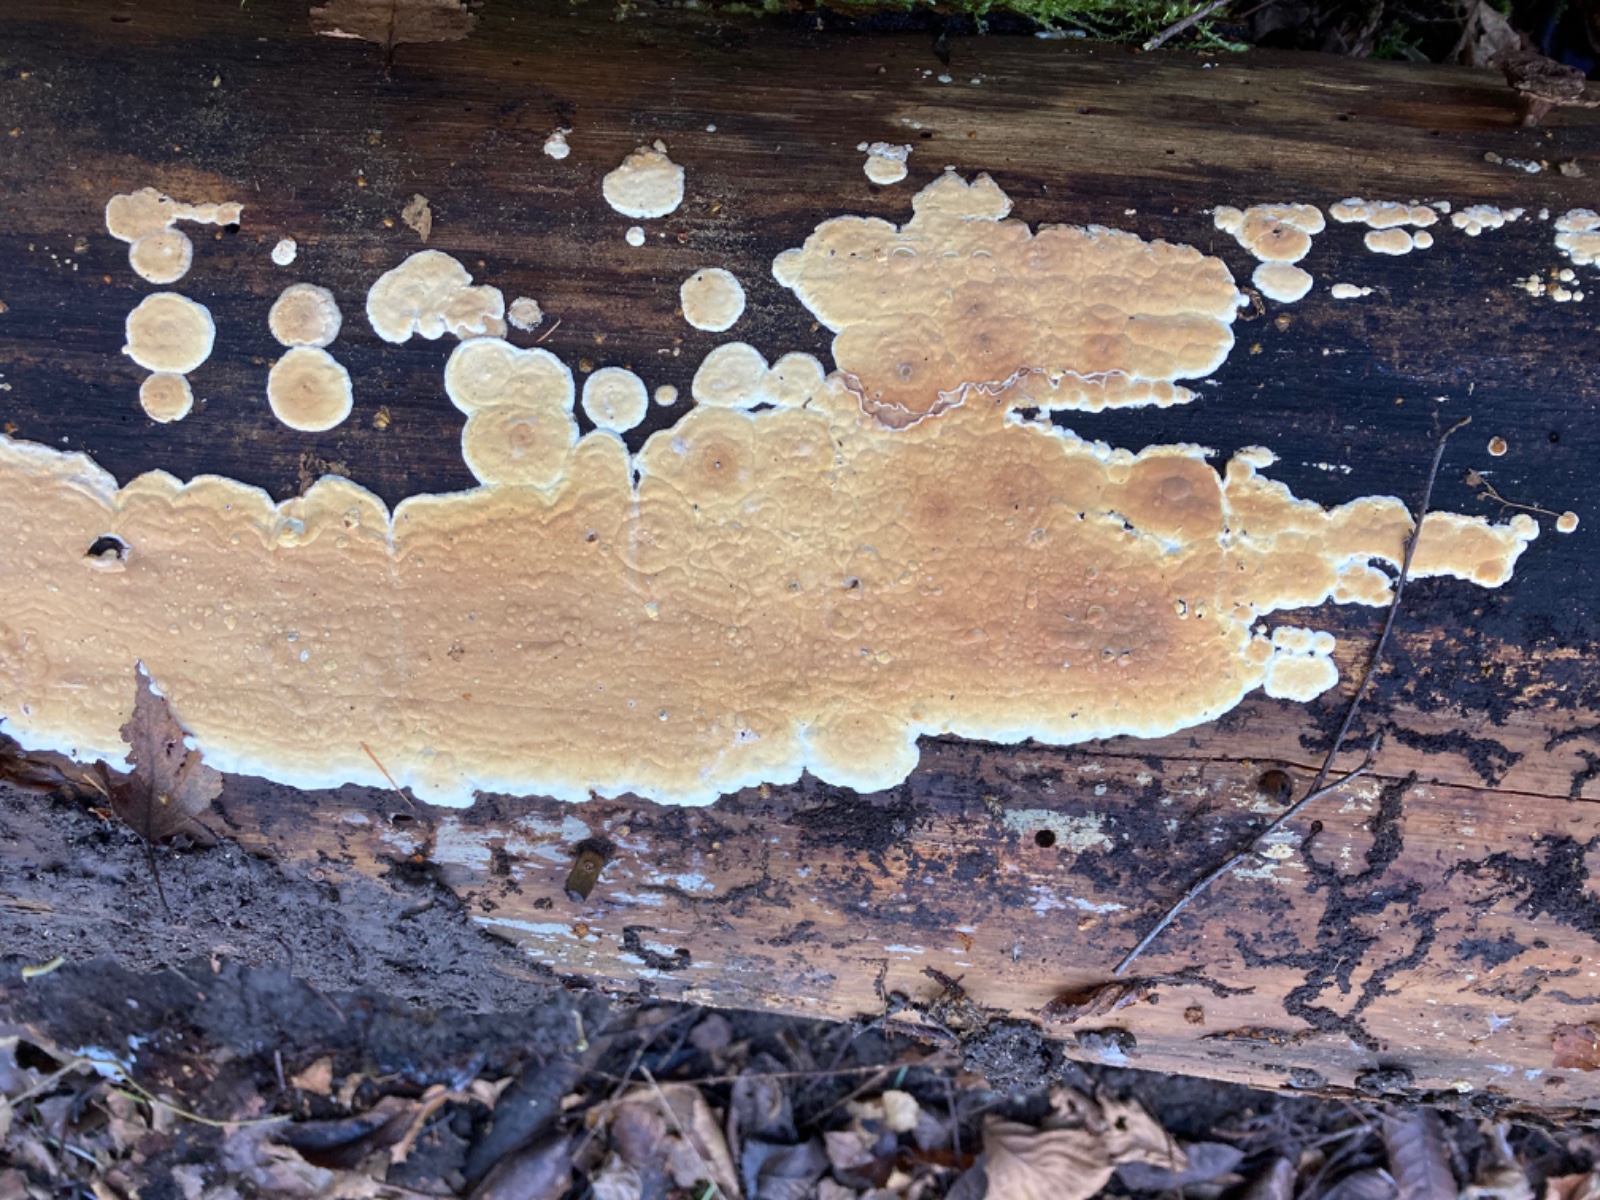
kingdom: Fungi
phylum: Basidiomycota
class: Agaricomycetes
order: Polyporales
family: Dacryobolaceae
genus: Dacryobolus
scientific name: Dacryobolus karstenii
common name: glat vulkanskorpe
